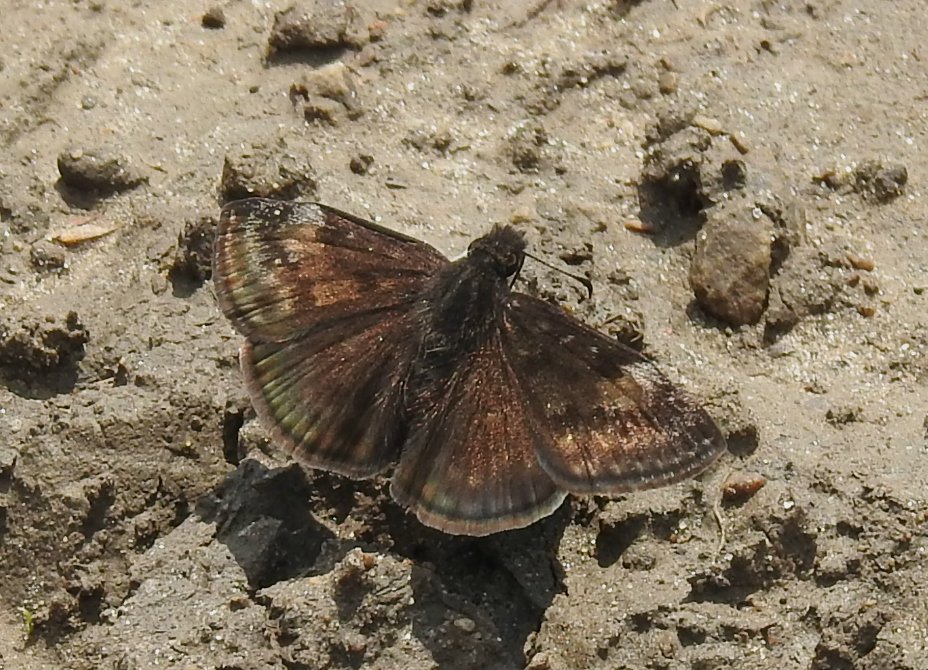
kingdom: Animalia
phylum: Arthropoda
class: Insecta
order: Lepidoptera
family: Hesperiidae
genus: Gesta
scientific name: Gesta
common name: Wild Indigo Duskywing
